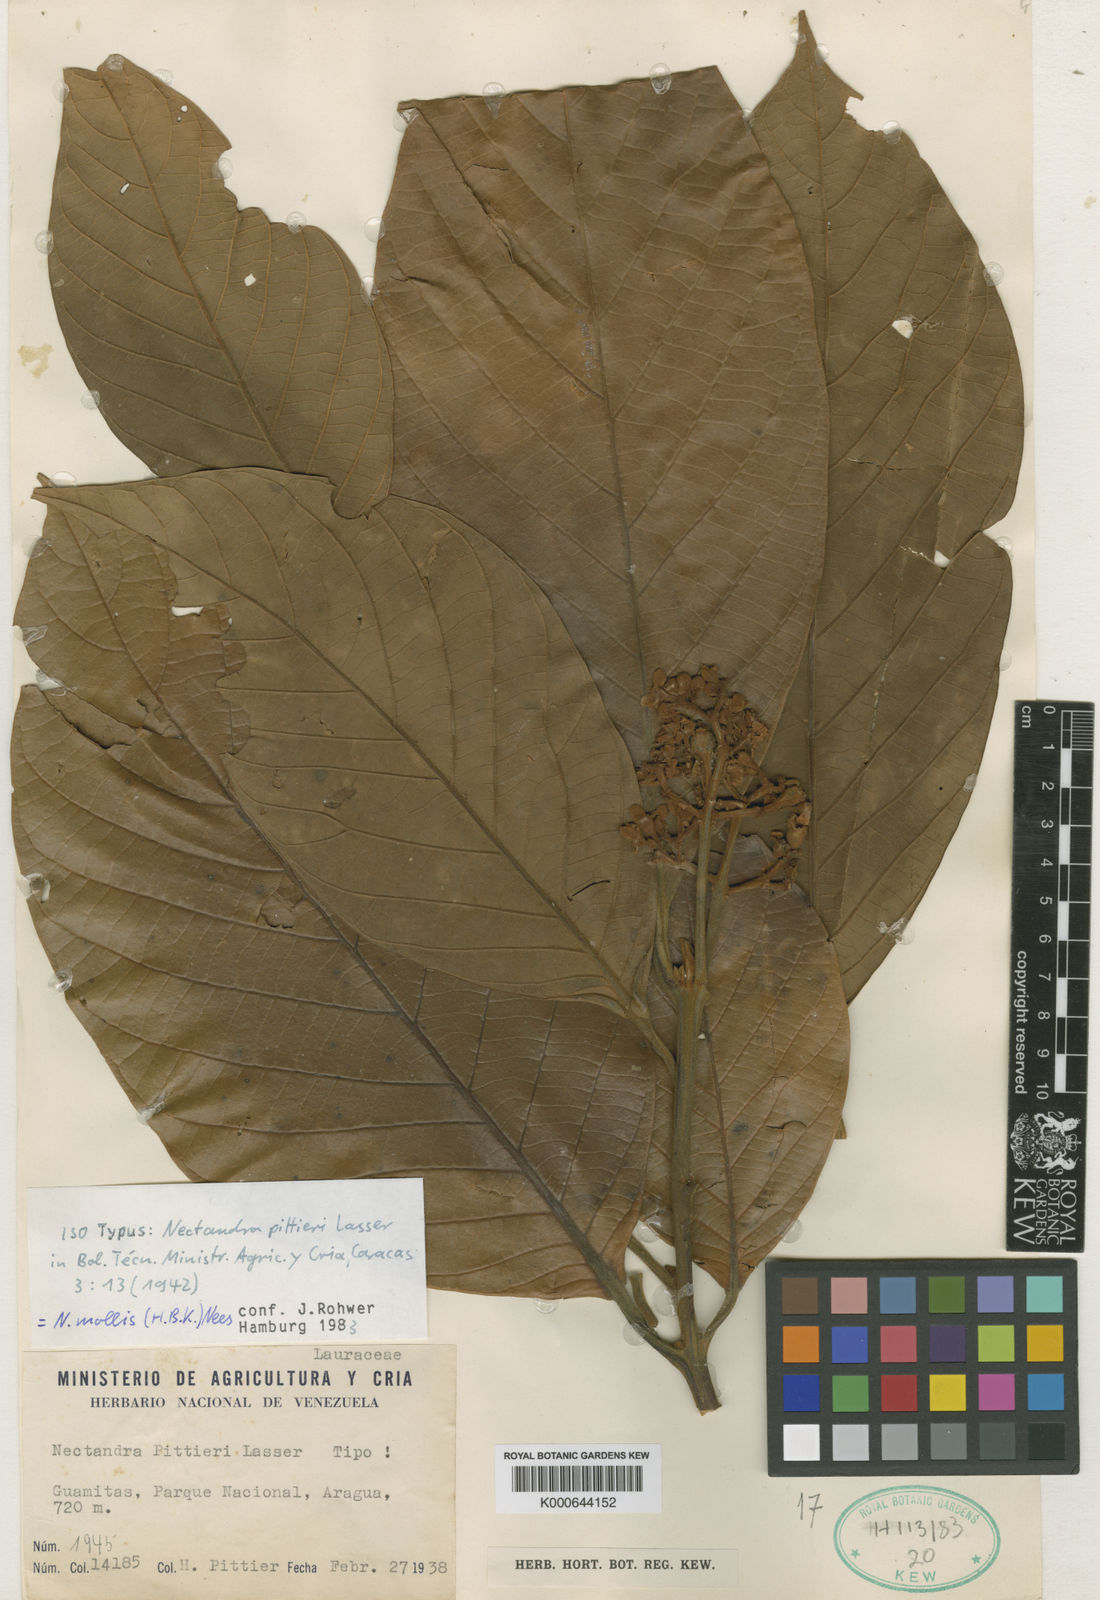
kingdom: Plantae
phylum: Tracheophyta
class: Magnoliopsida
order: Laurales
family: Lauraceae
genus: Nectandra
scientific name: Nectandra villosa
